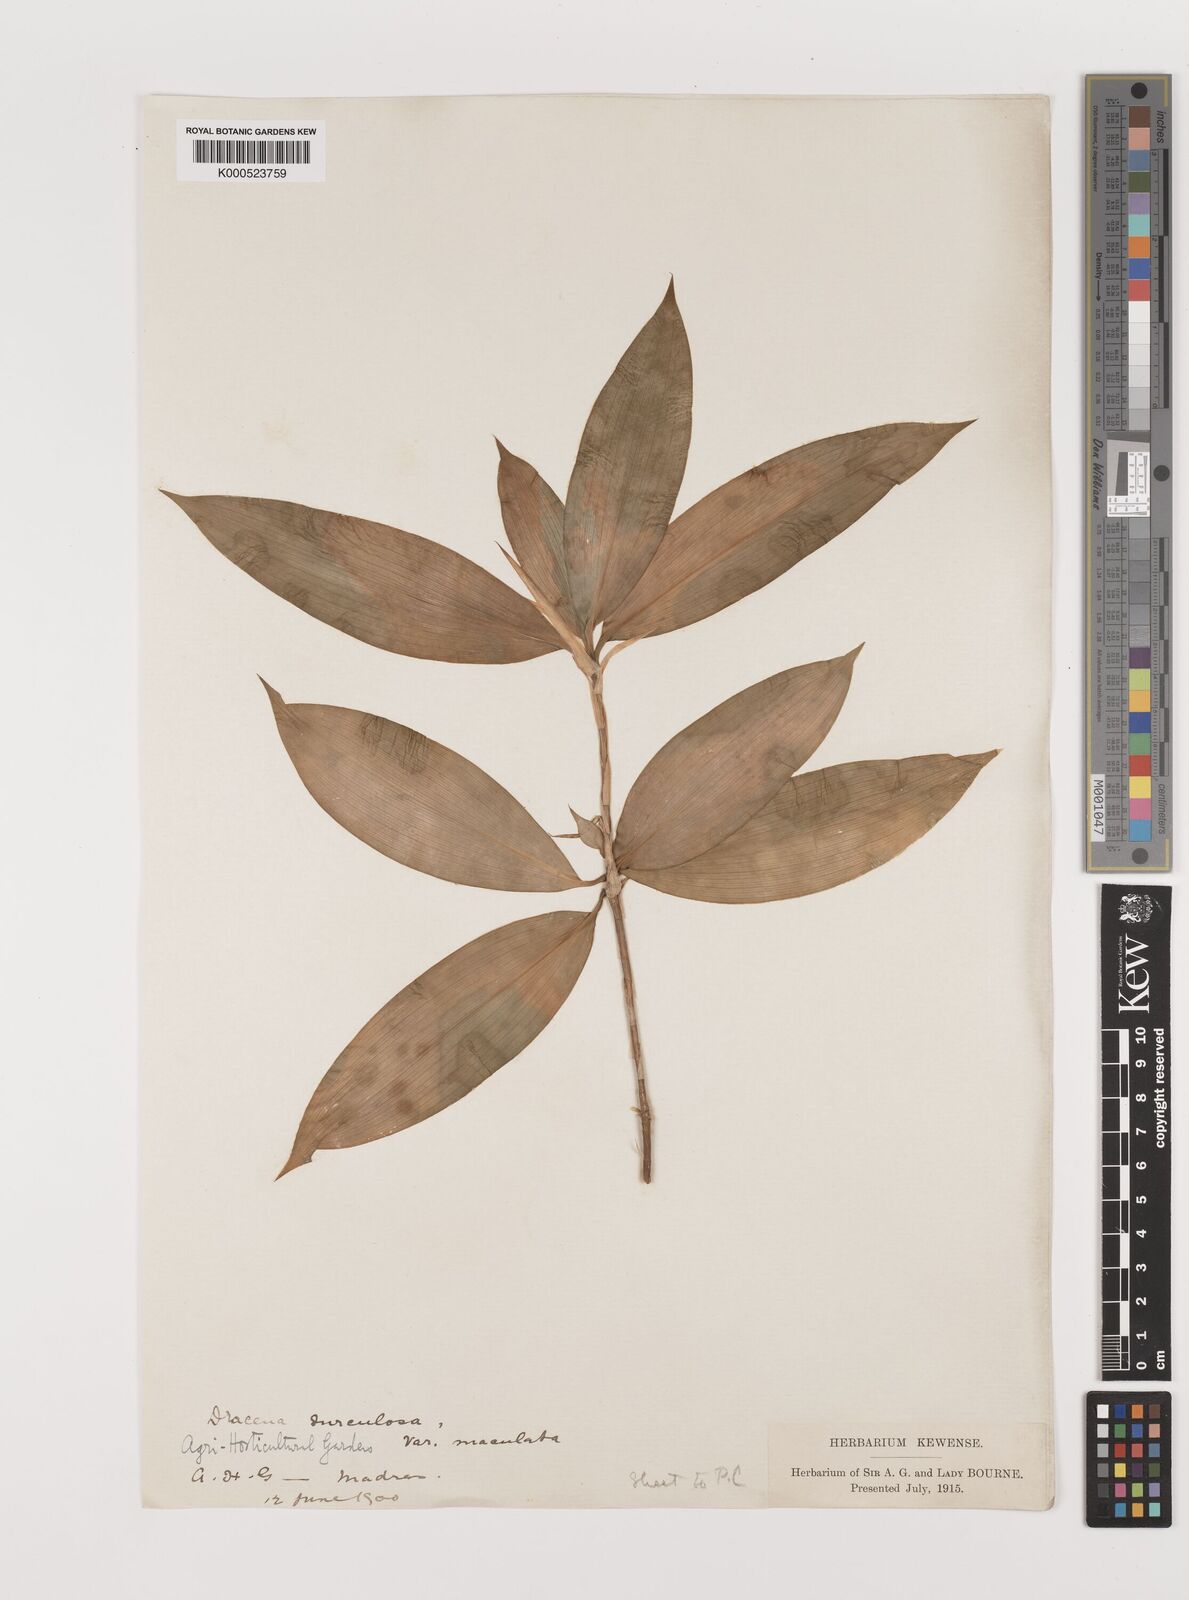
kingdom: Plantae
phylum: Tracheophyta
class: Liliopsida
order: Asparagales
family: Asparagaceae
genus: Dracaena
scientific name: Dracaena surculosa
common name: Spotted dracaena
